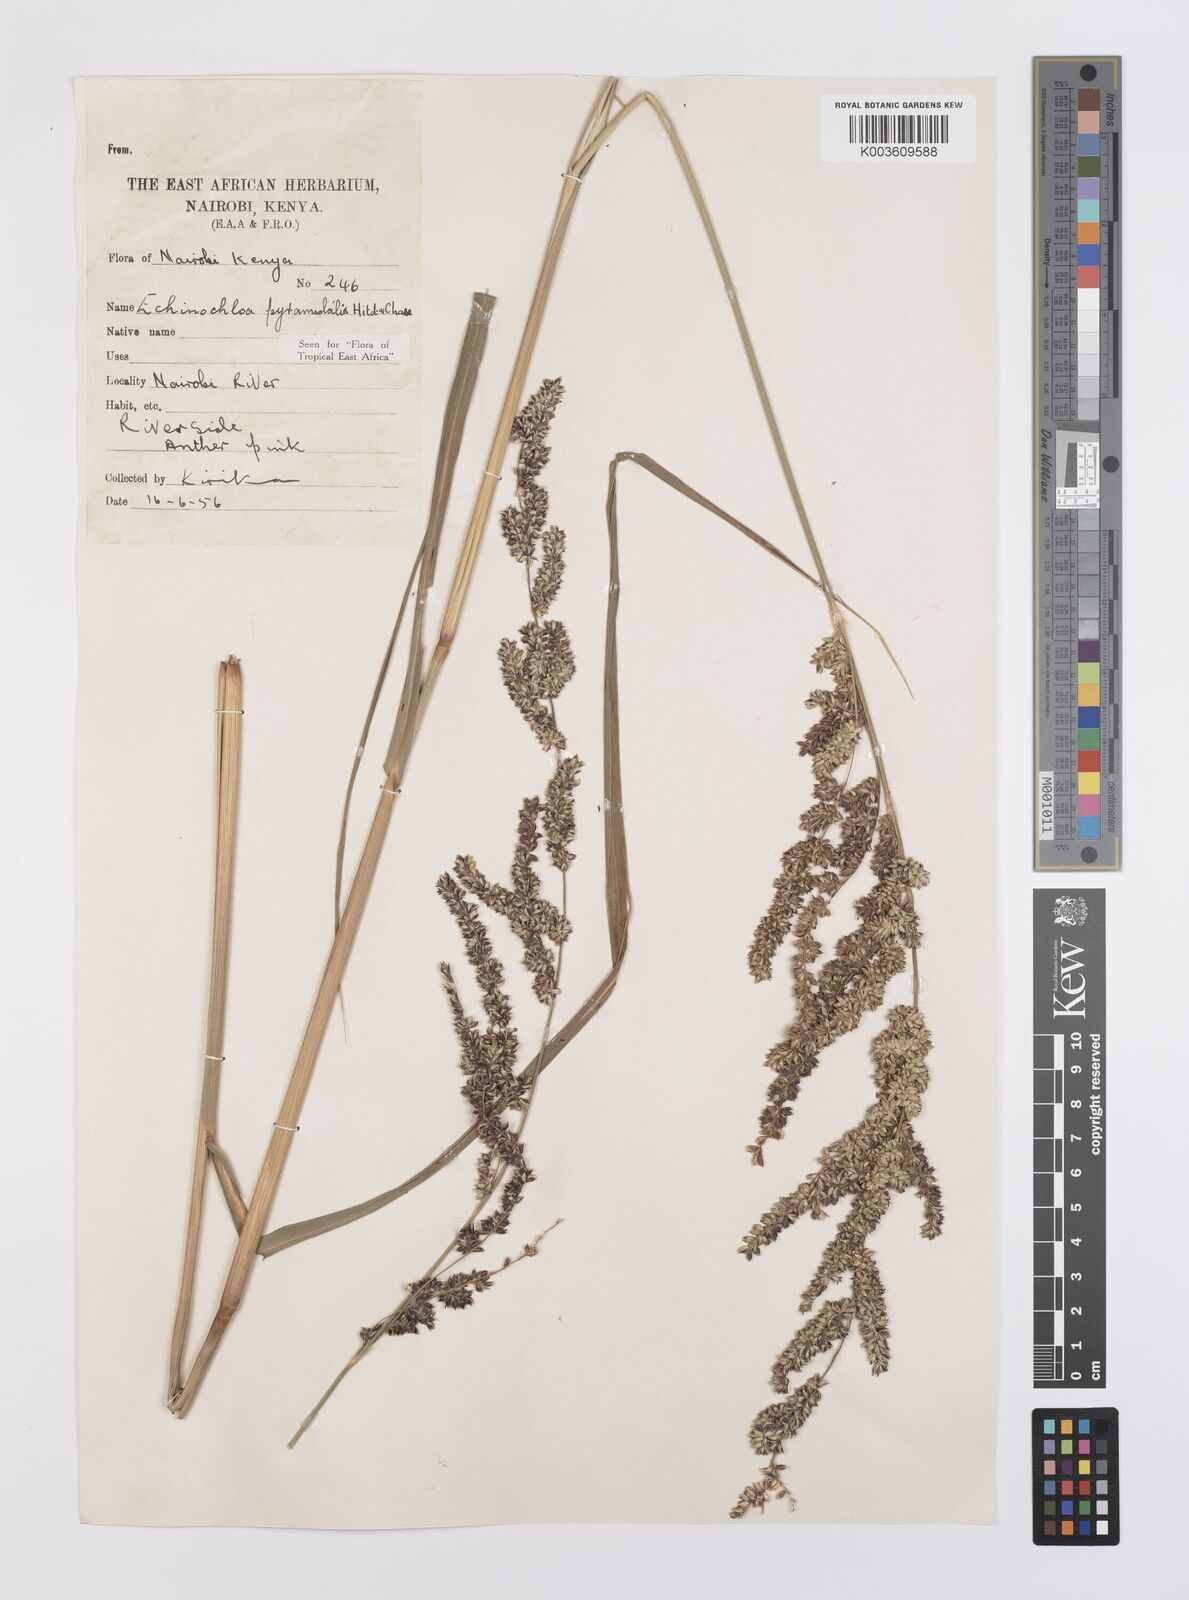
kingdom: Plantae
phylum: Tracheophyta
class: Liliopsida
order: Poales
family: Poaceae
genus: Echinochloa
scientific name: Echinochloa pyramidalis
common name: Antelope grass
